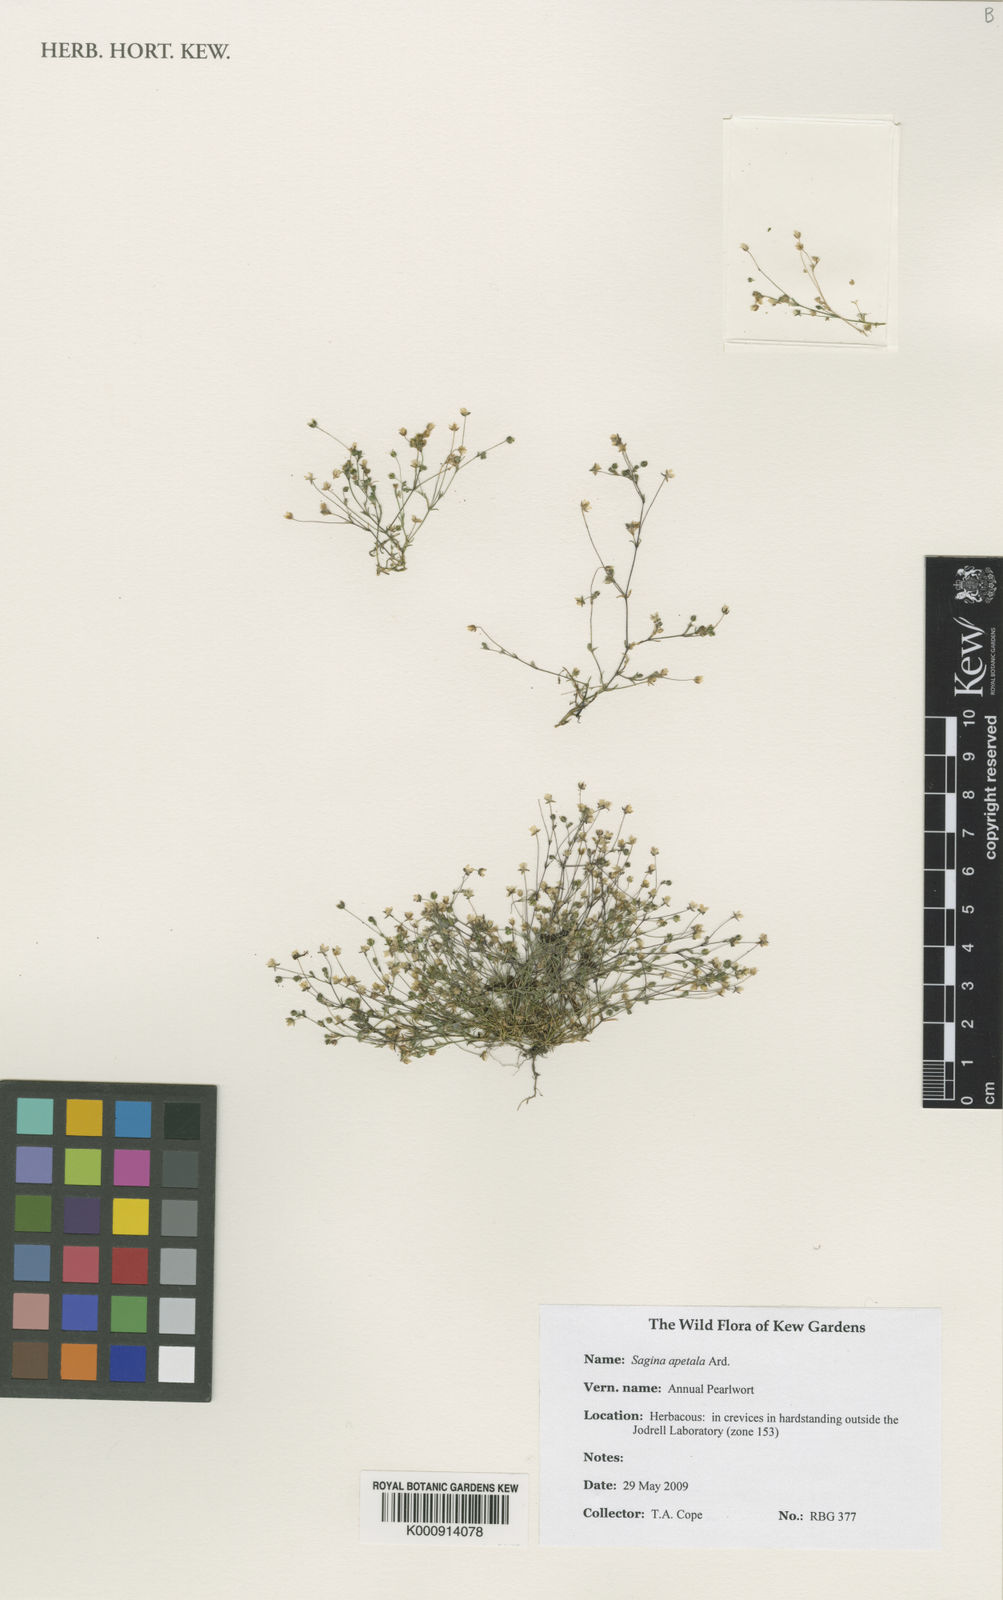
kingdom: Plantae
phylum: Tracheophyta
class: Magnoliopsida
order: Caryophyllales
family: Caryophyllaceae
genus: Sagina
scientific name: Sagina apetala
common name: Annual pearlwort
